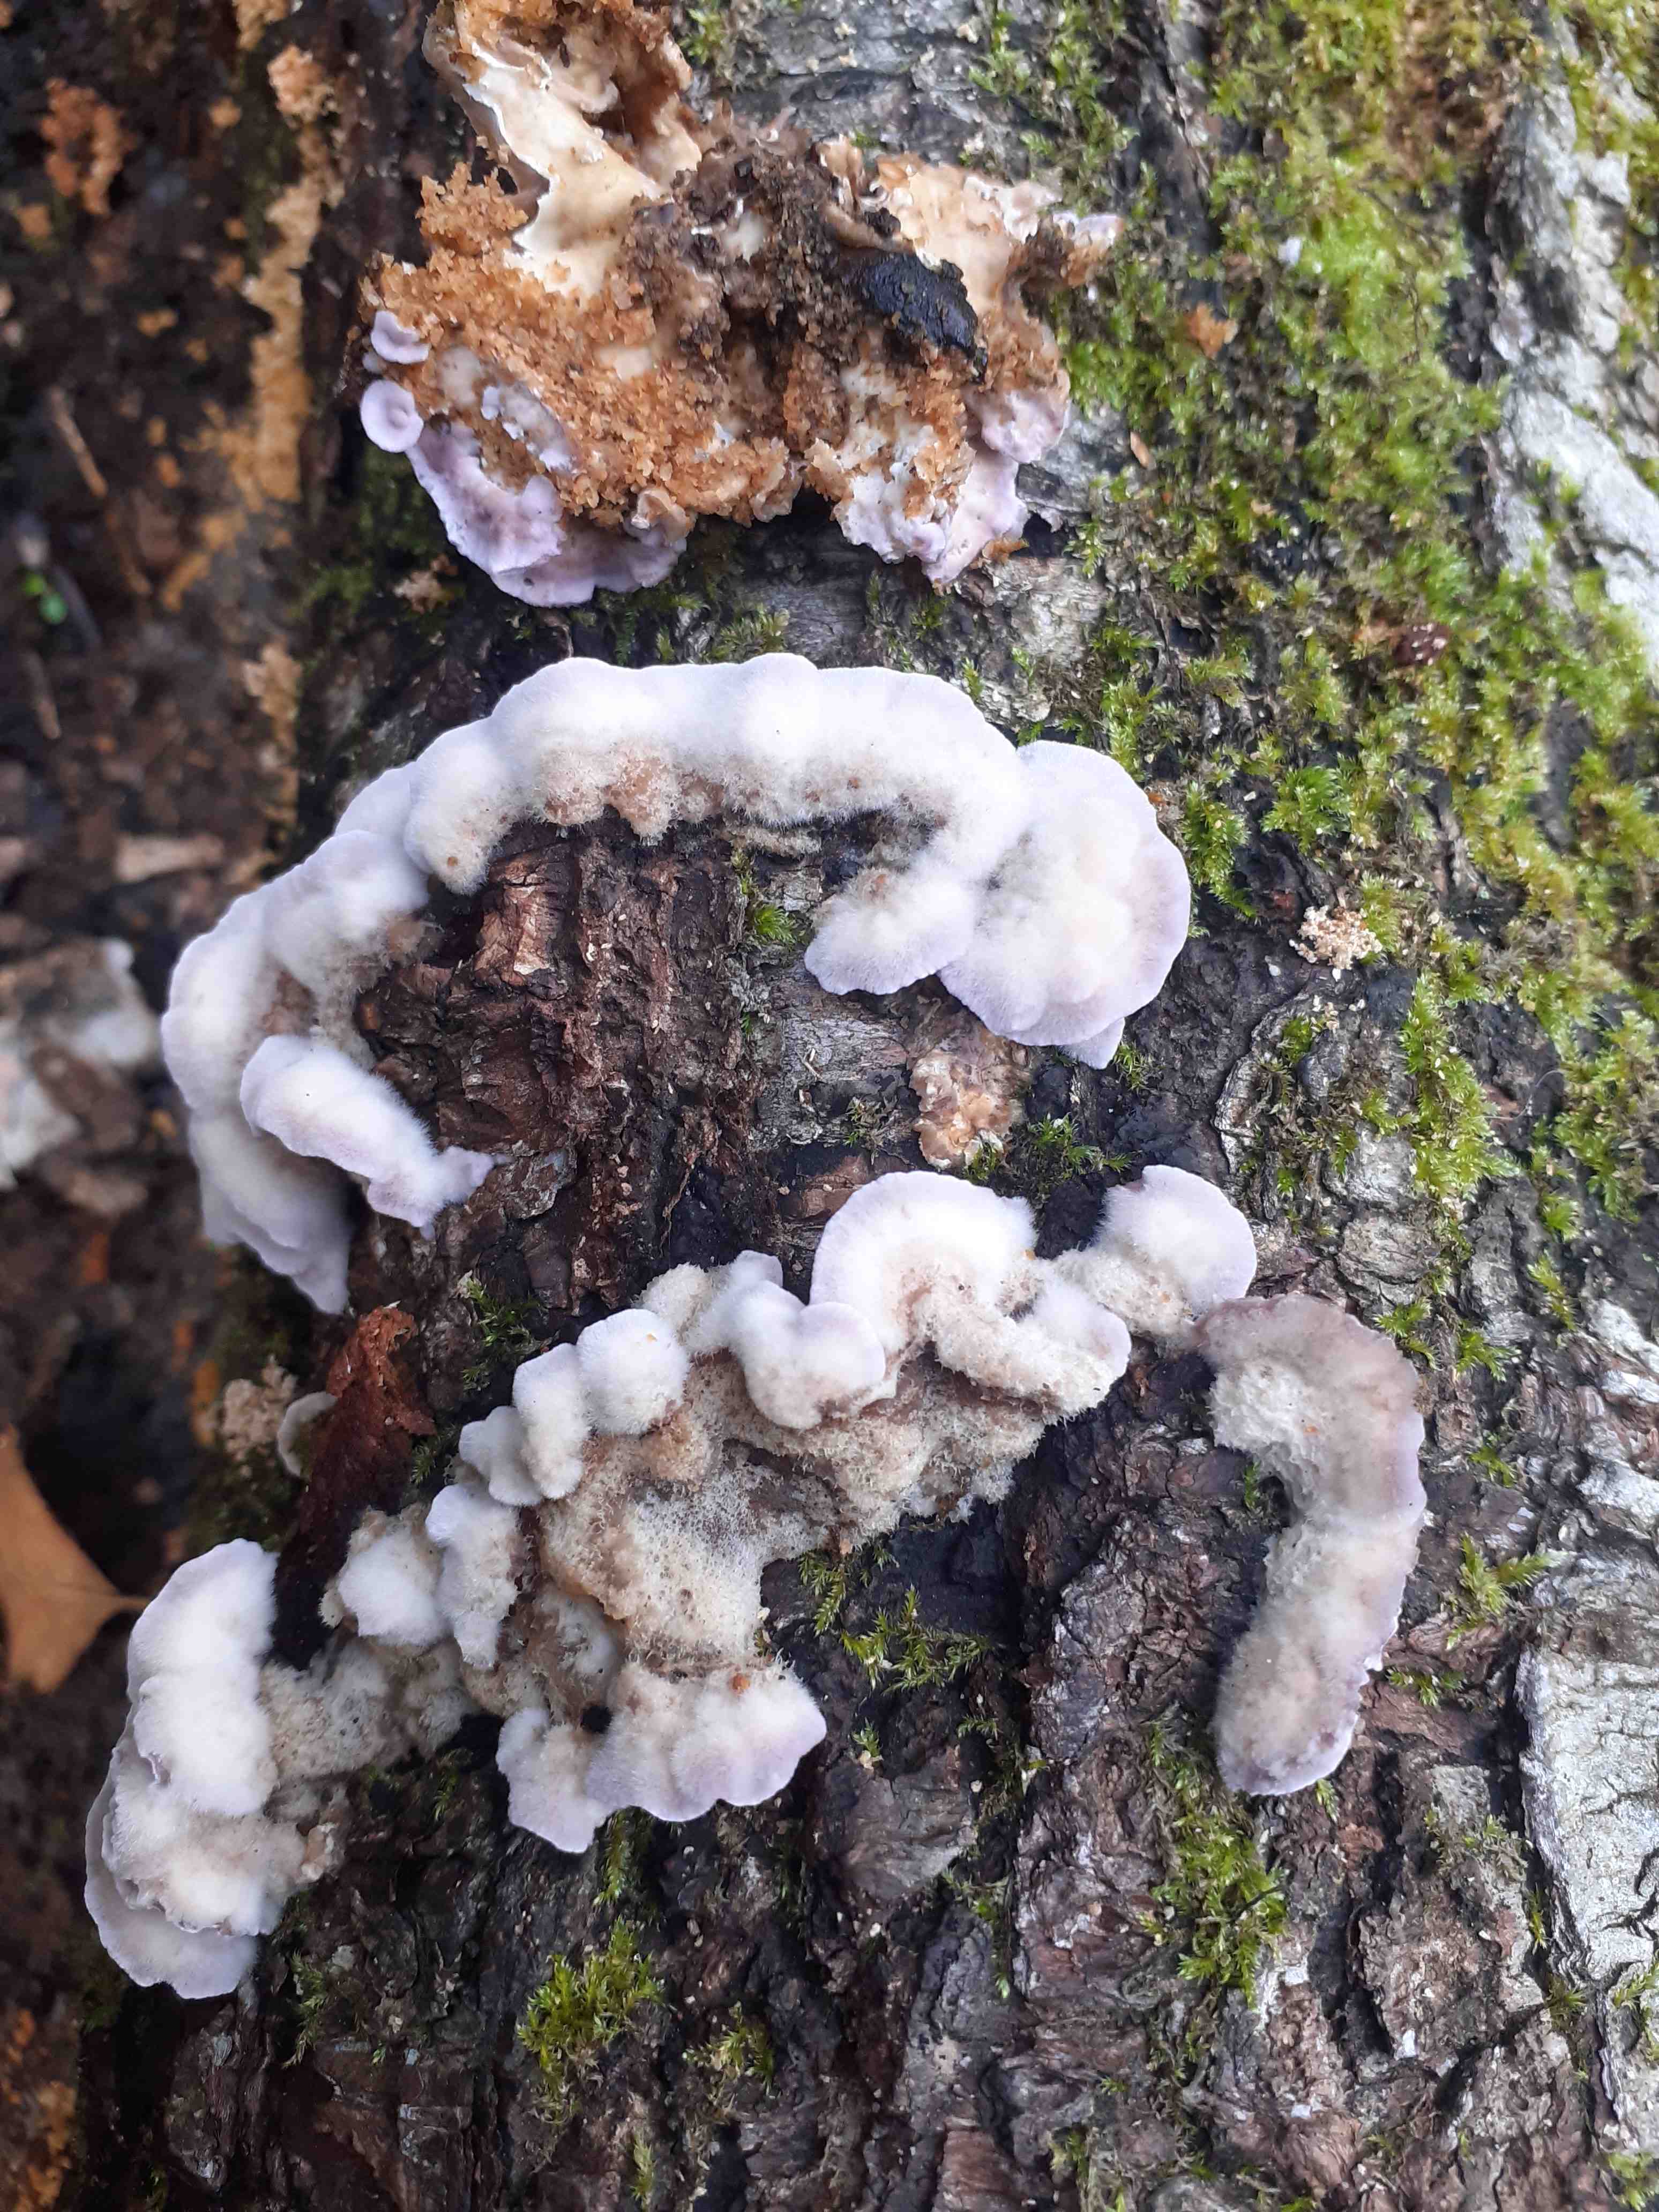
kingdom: Fungi
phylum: Basidiomycota
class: Agaricomycetes
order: Agaricales
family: Cyphellaceae
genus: Chondrostereum
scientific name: Chondrostereum purpureum
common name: purpurlædersvamp
